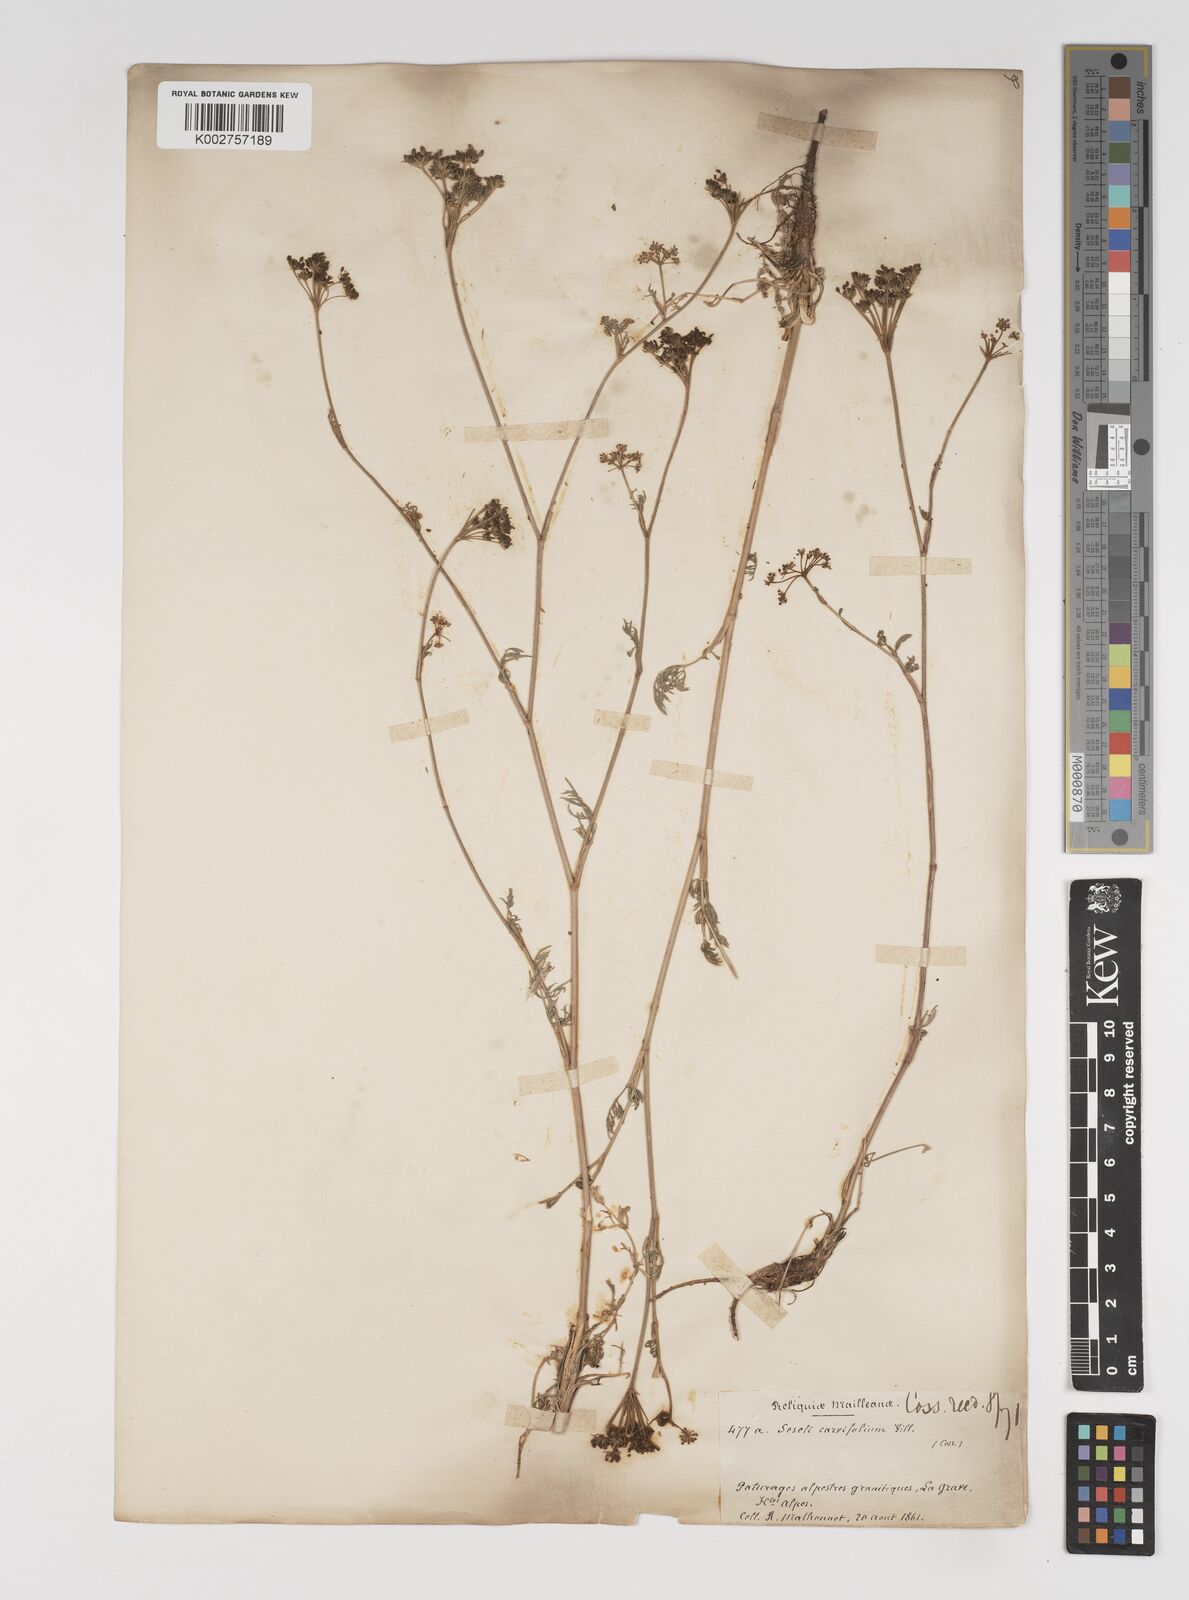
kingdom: Plantae
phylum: Tracheophyta
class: Magnoliopsida
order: Apiales
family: Apiaceae
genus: Seseli
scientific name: Seseli annuum
